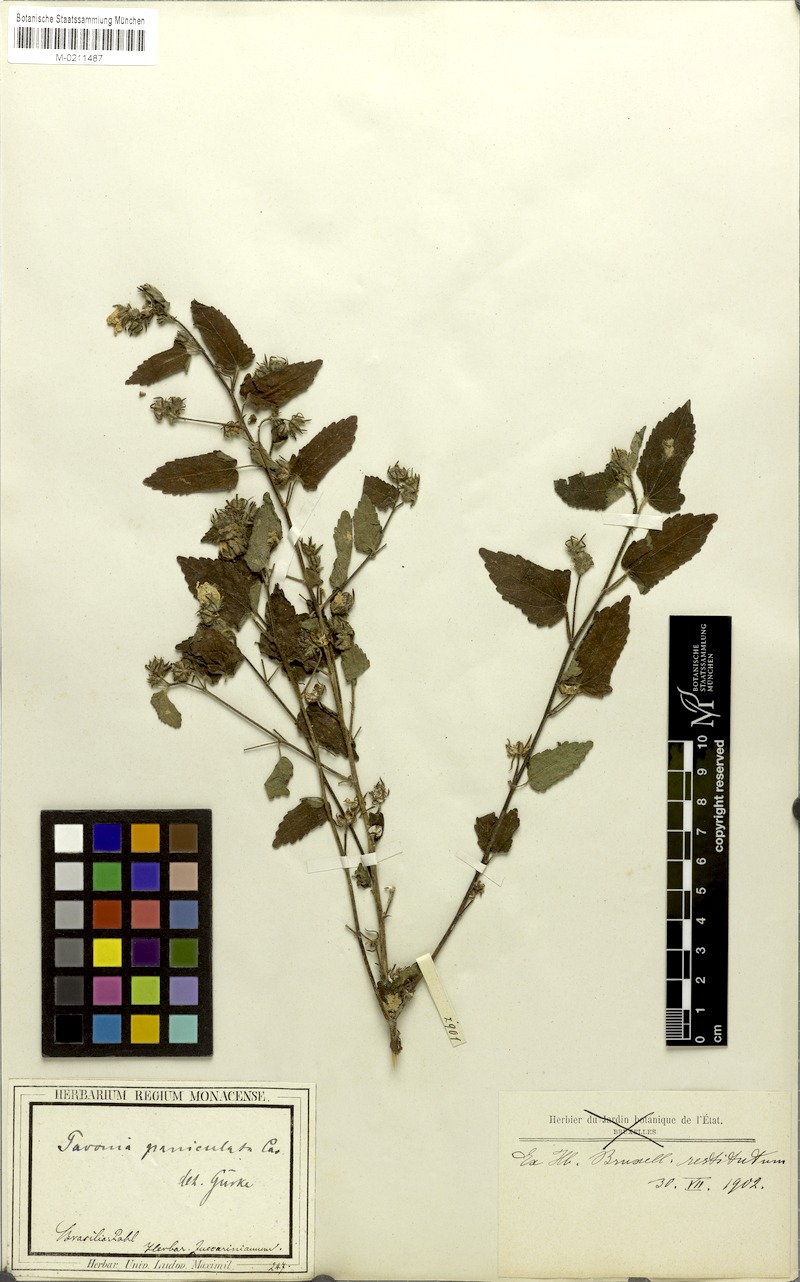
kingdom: Plantae
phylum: Tracheophyta
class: Magnoliopsida
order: Malvales
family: Malvaceae
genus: Pavonia
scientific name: Pavonia paniculata
